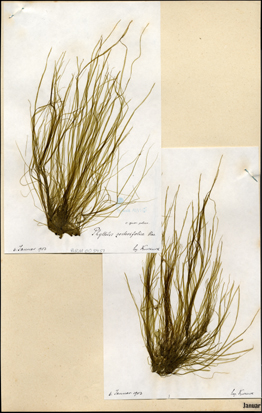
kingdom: Chromista
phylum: Ochrophyta
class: Phaeophyceae
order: Scytosiphonales
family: Scytosiphonaceae
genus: Petalonia
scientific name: Petalonia zosterifolia
